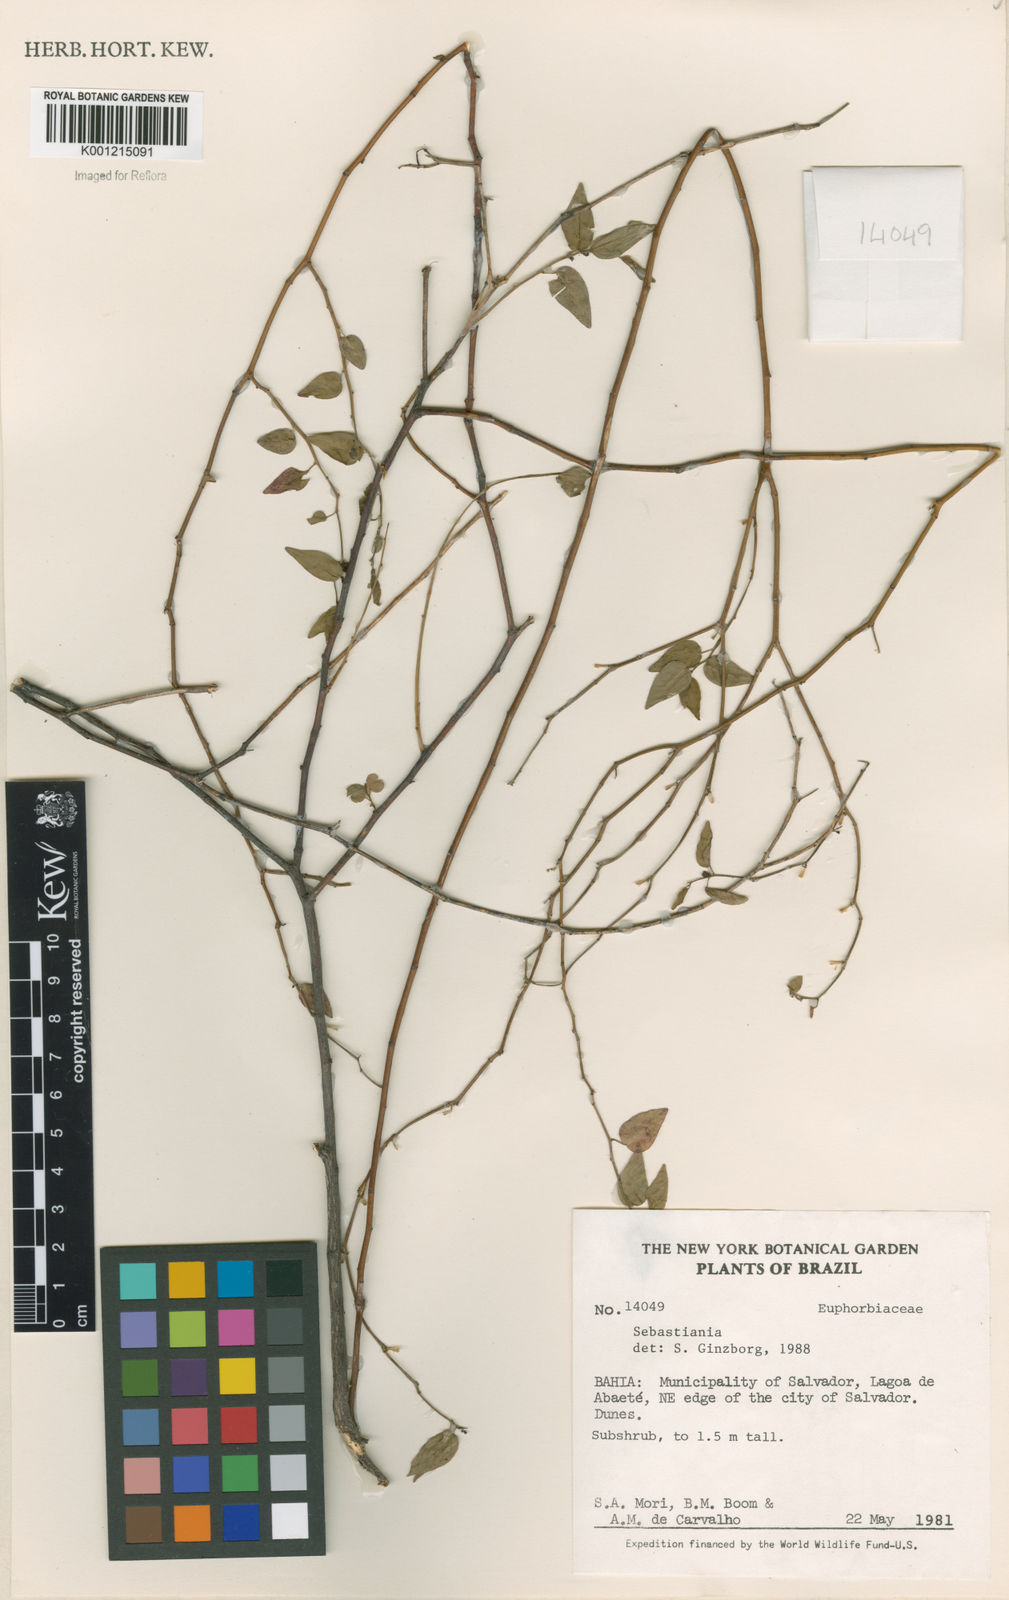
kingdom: Plantae
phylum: Tracheophyta
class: Magnoliopsida
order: Malpighiales
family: Euphorbiaceae
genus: Sebastiania
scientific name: Sebastiania
